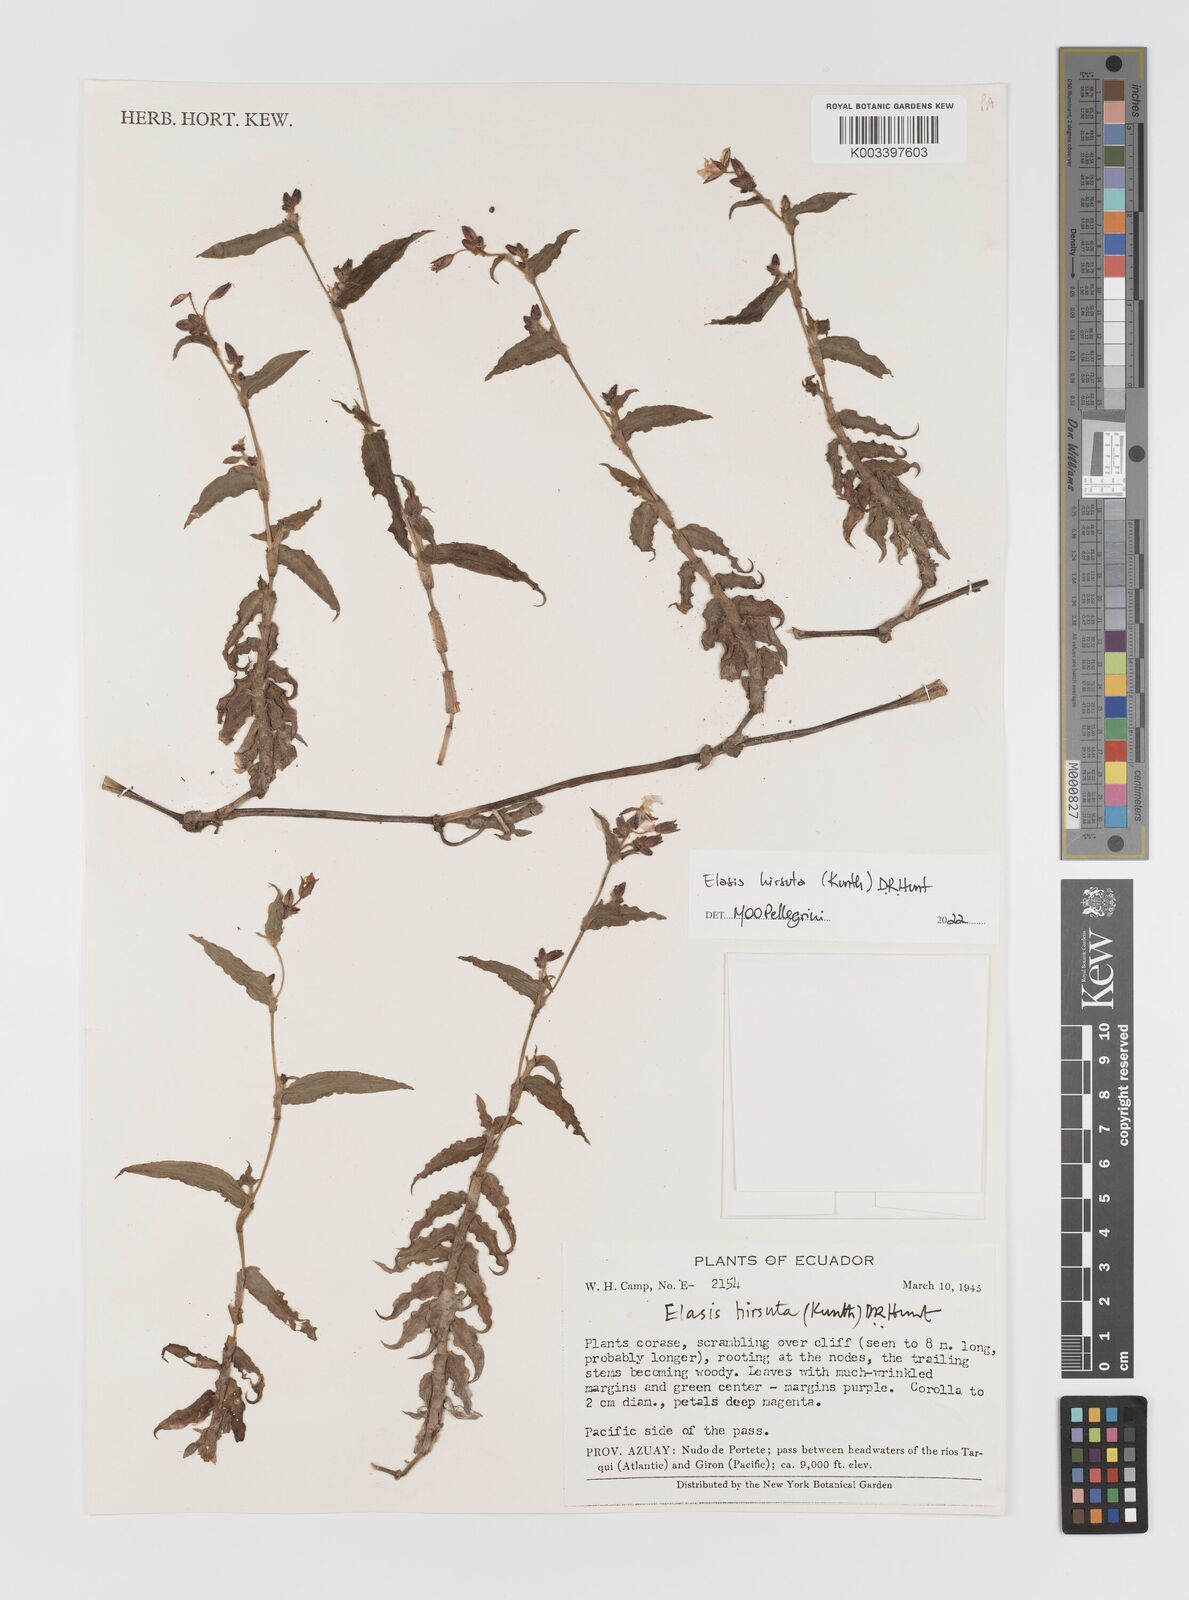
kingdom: Plantae
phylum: Tracheophyta
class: Liliopsida
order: Commelinales
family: Commelinaceae
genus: Elasis
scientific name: Elasis hirsuta
